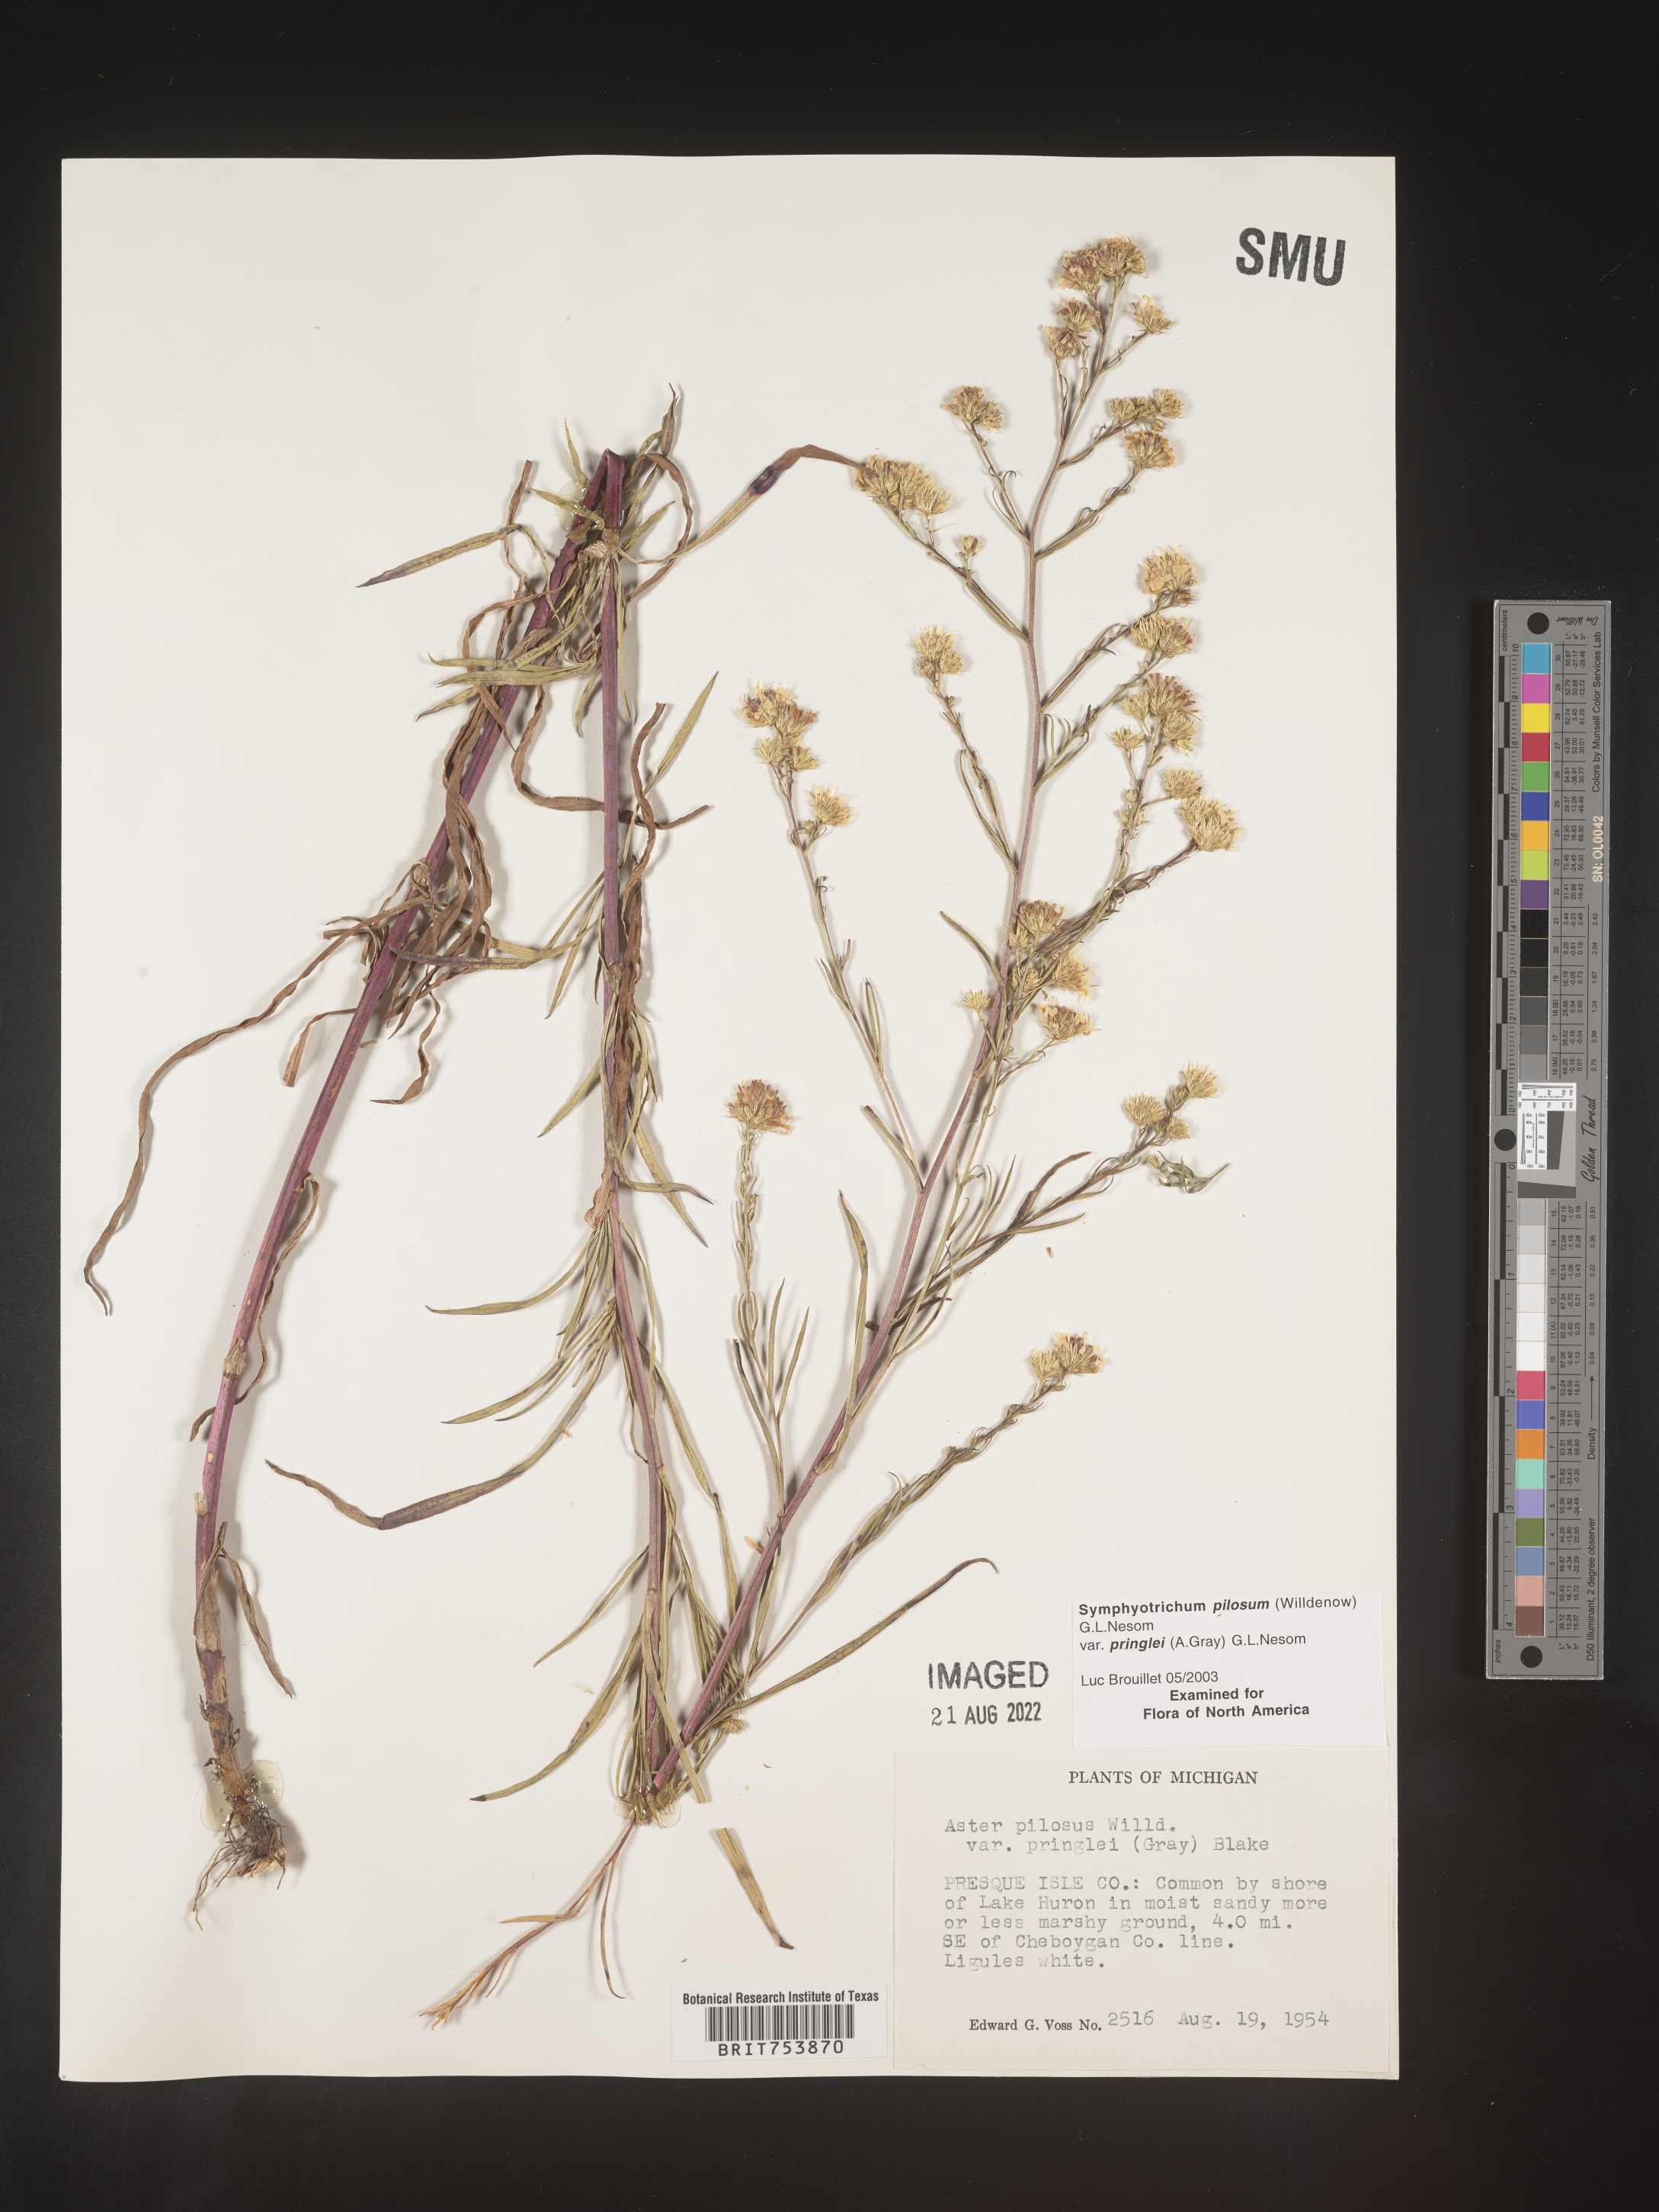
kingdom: Plantae
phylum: Tracheophyta
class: Magnoliopsida
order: Asterales
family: Asteraceae
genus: Symphyotrichum
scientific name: Symphyotrichum pilosum
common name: Awl aster
